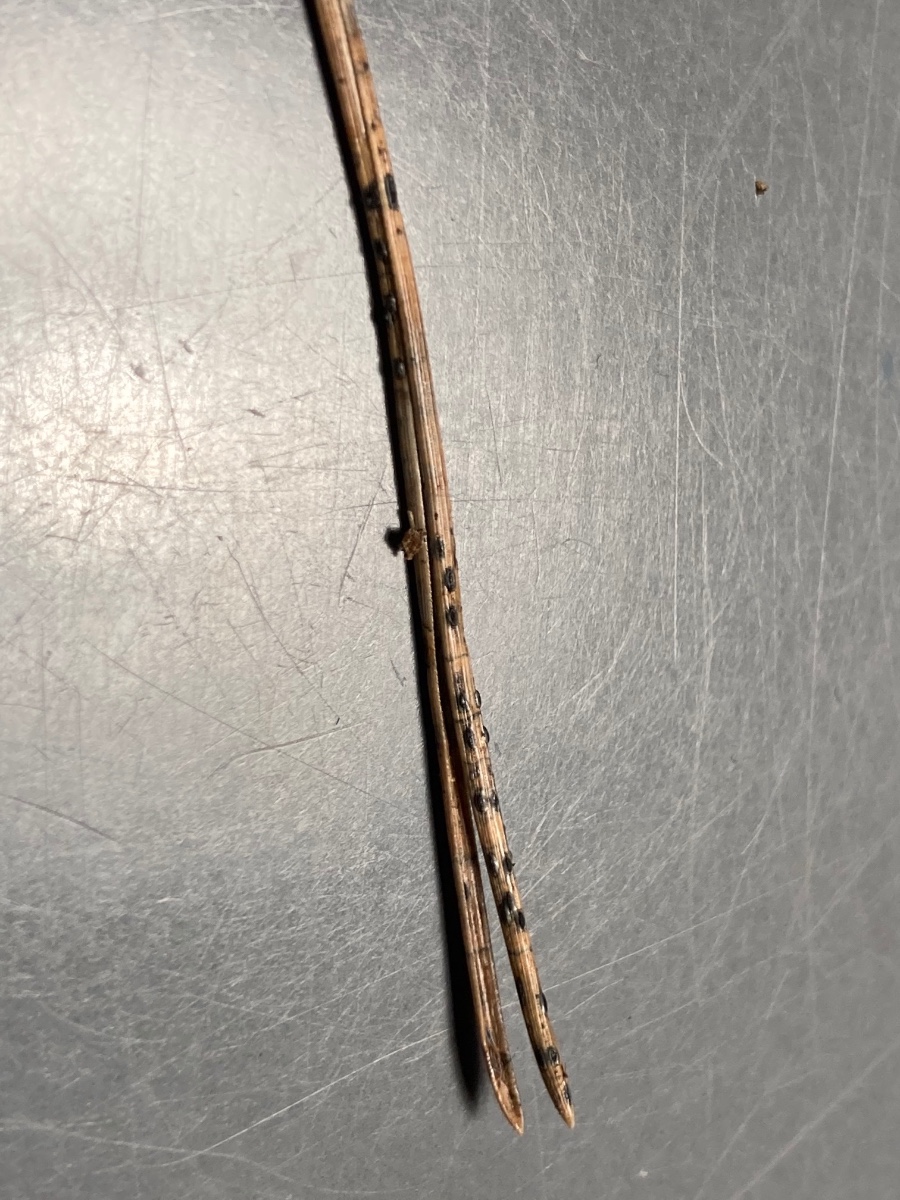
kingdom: Fungi
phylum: Ascomycota
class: Leotiomycetes
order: Rhytismatales
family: Rhytismataceae
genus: Lophodermium
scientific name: Lophodermium pinastri
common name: fyrre-fureplet
